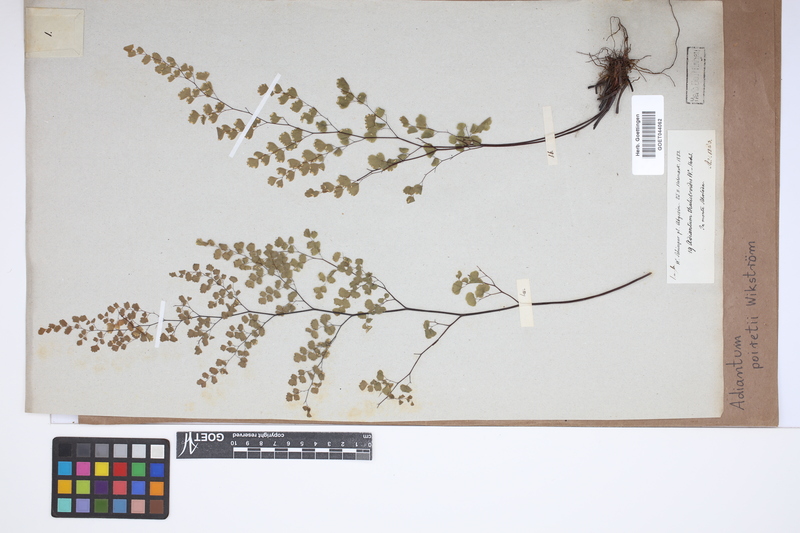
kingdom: Plantae
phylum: Tracheophyta
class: Polypodiopsida
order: Polypodiales
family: Pteridaceae
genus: Adiantum
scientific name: Adiantum poiretii
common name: Mexican maidenhair
